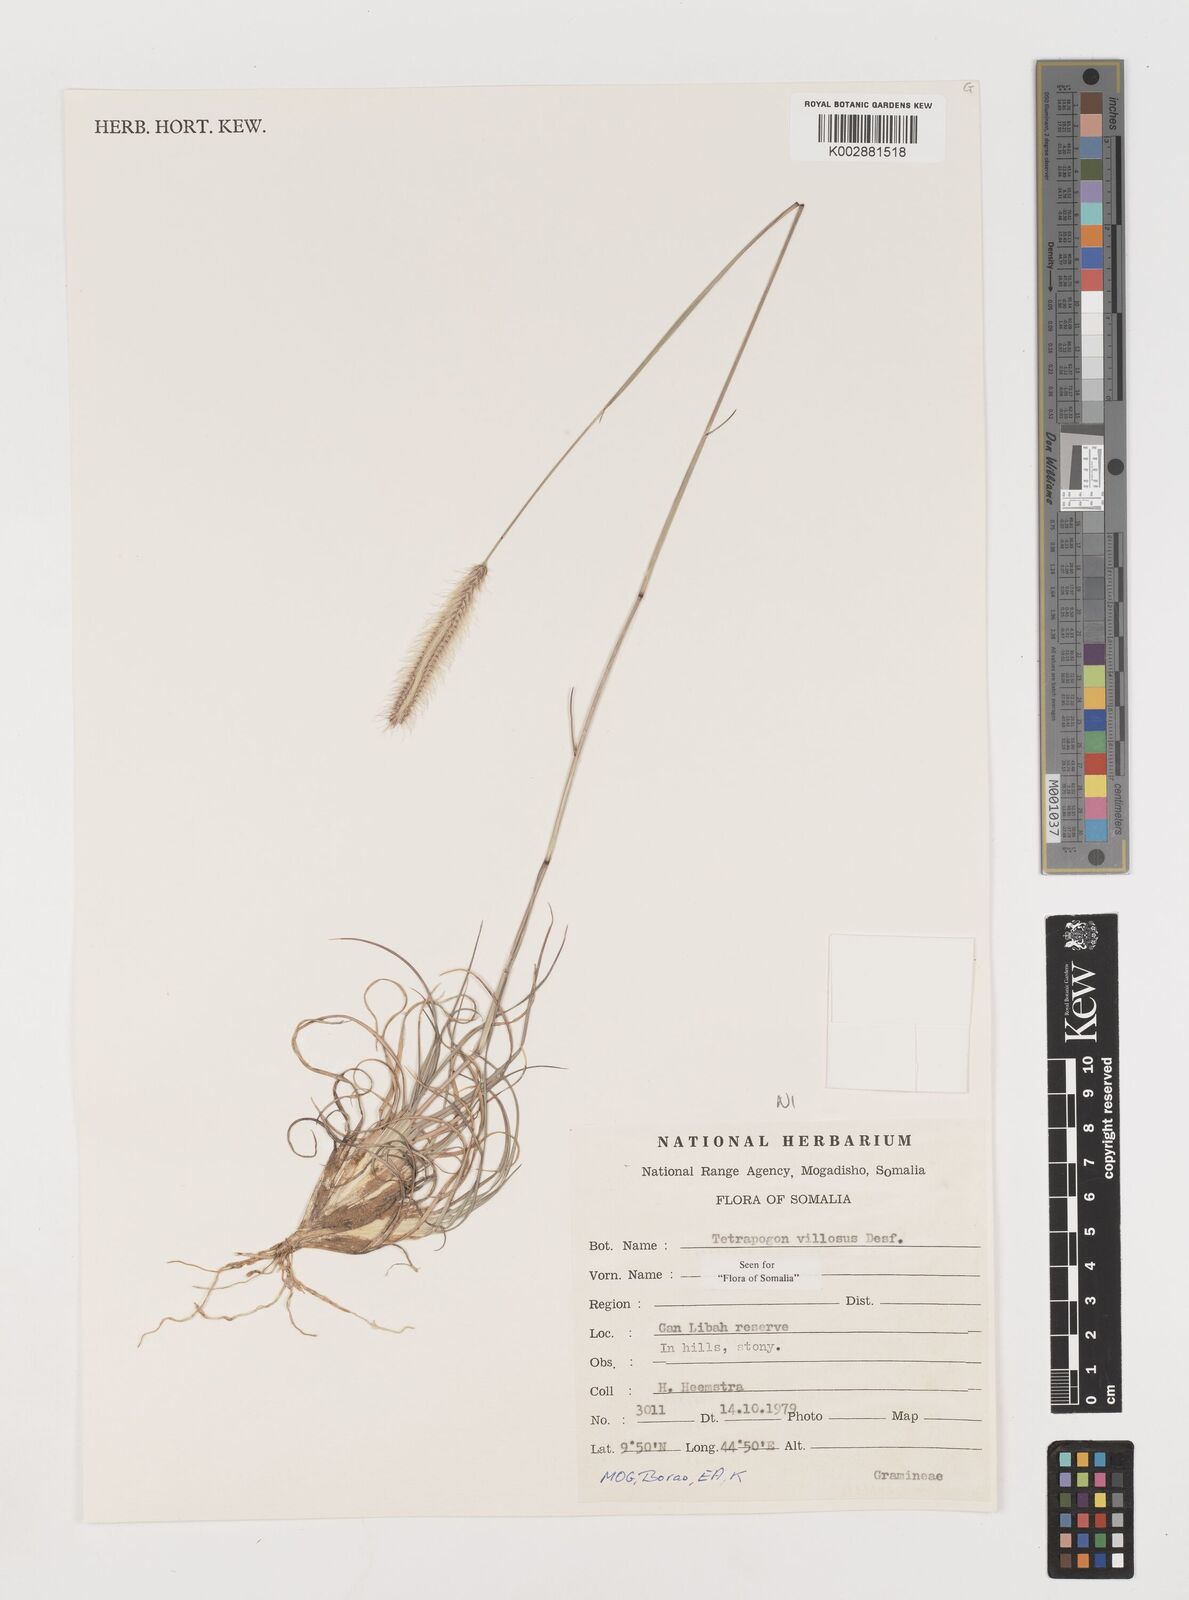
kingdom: Plantae
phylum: Tracheophyta
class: Liliopsida
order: Poales
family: Poaceae
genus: Tetrapogon
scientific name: Tetrapogon villosus
